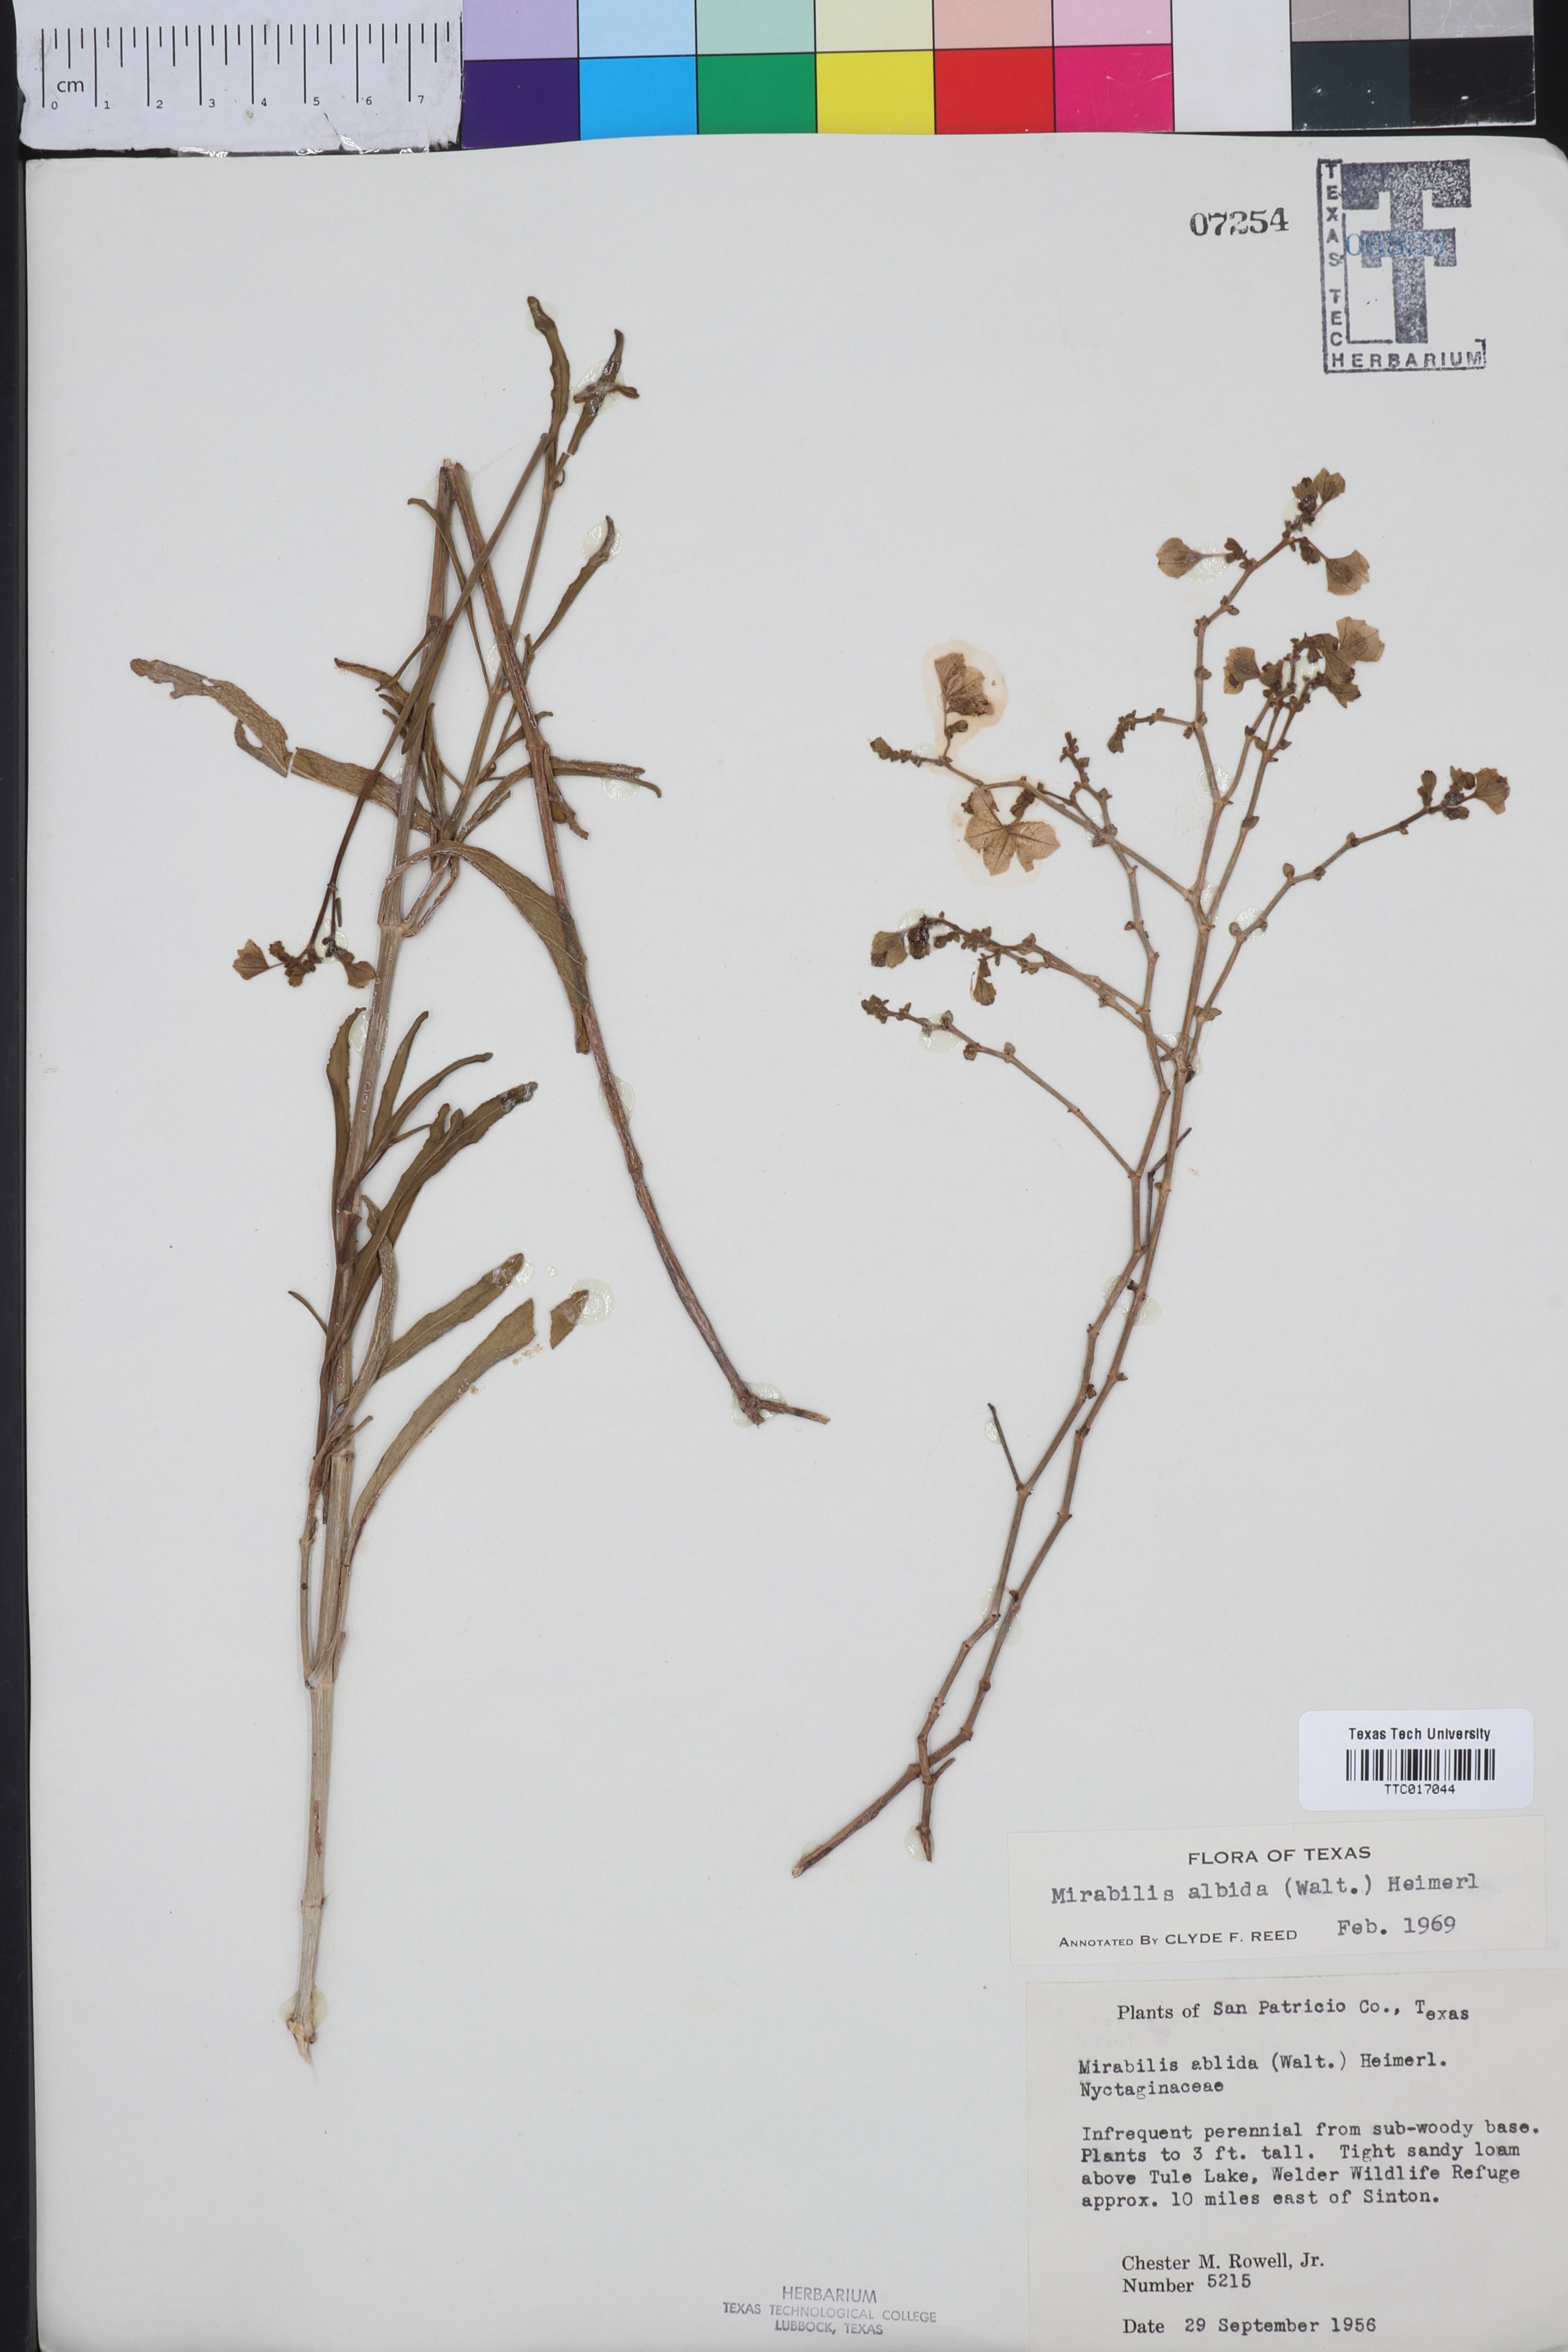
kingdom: Plantae
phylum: Tracheophyta
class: Magnoliopsida
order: Caryophyllales
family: Nyctaginaceae
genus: Mirabilis
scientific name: Mirabilis albida
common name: Hairy four-o'clock
